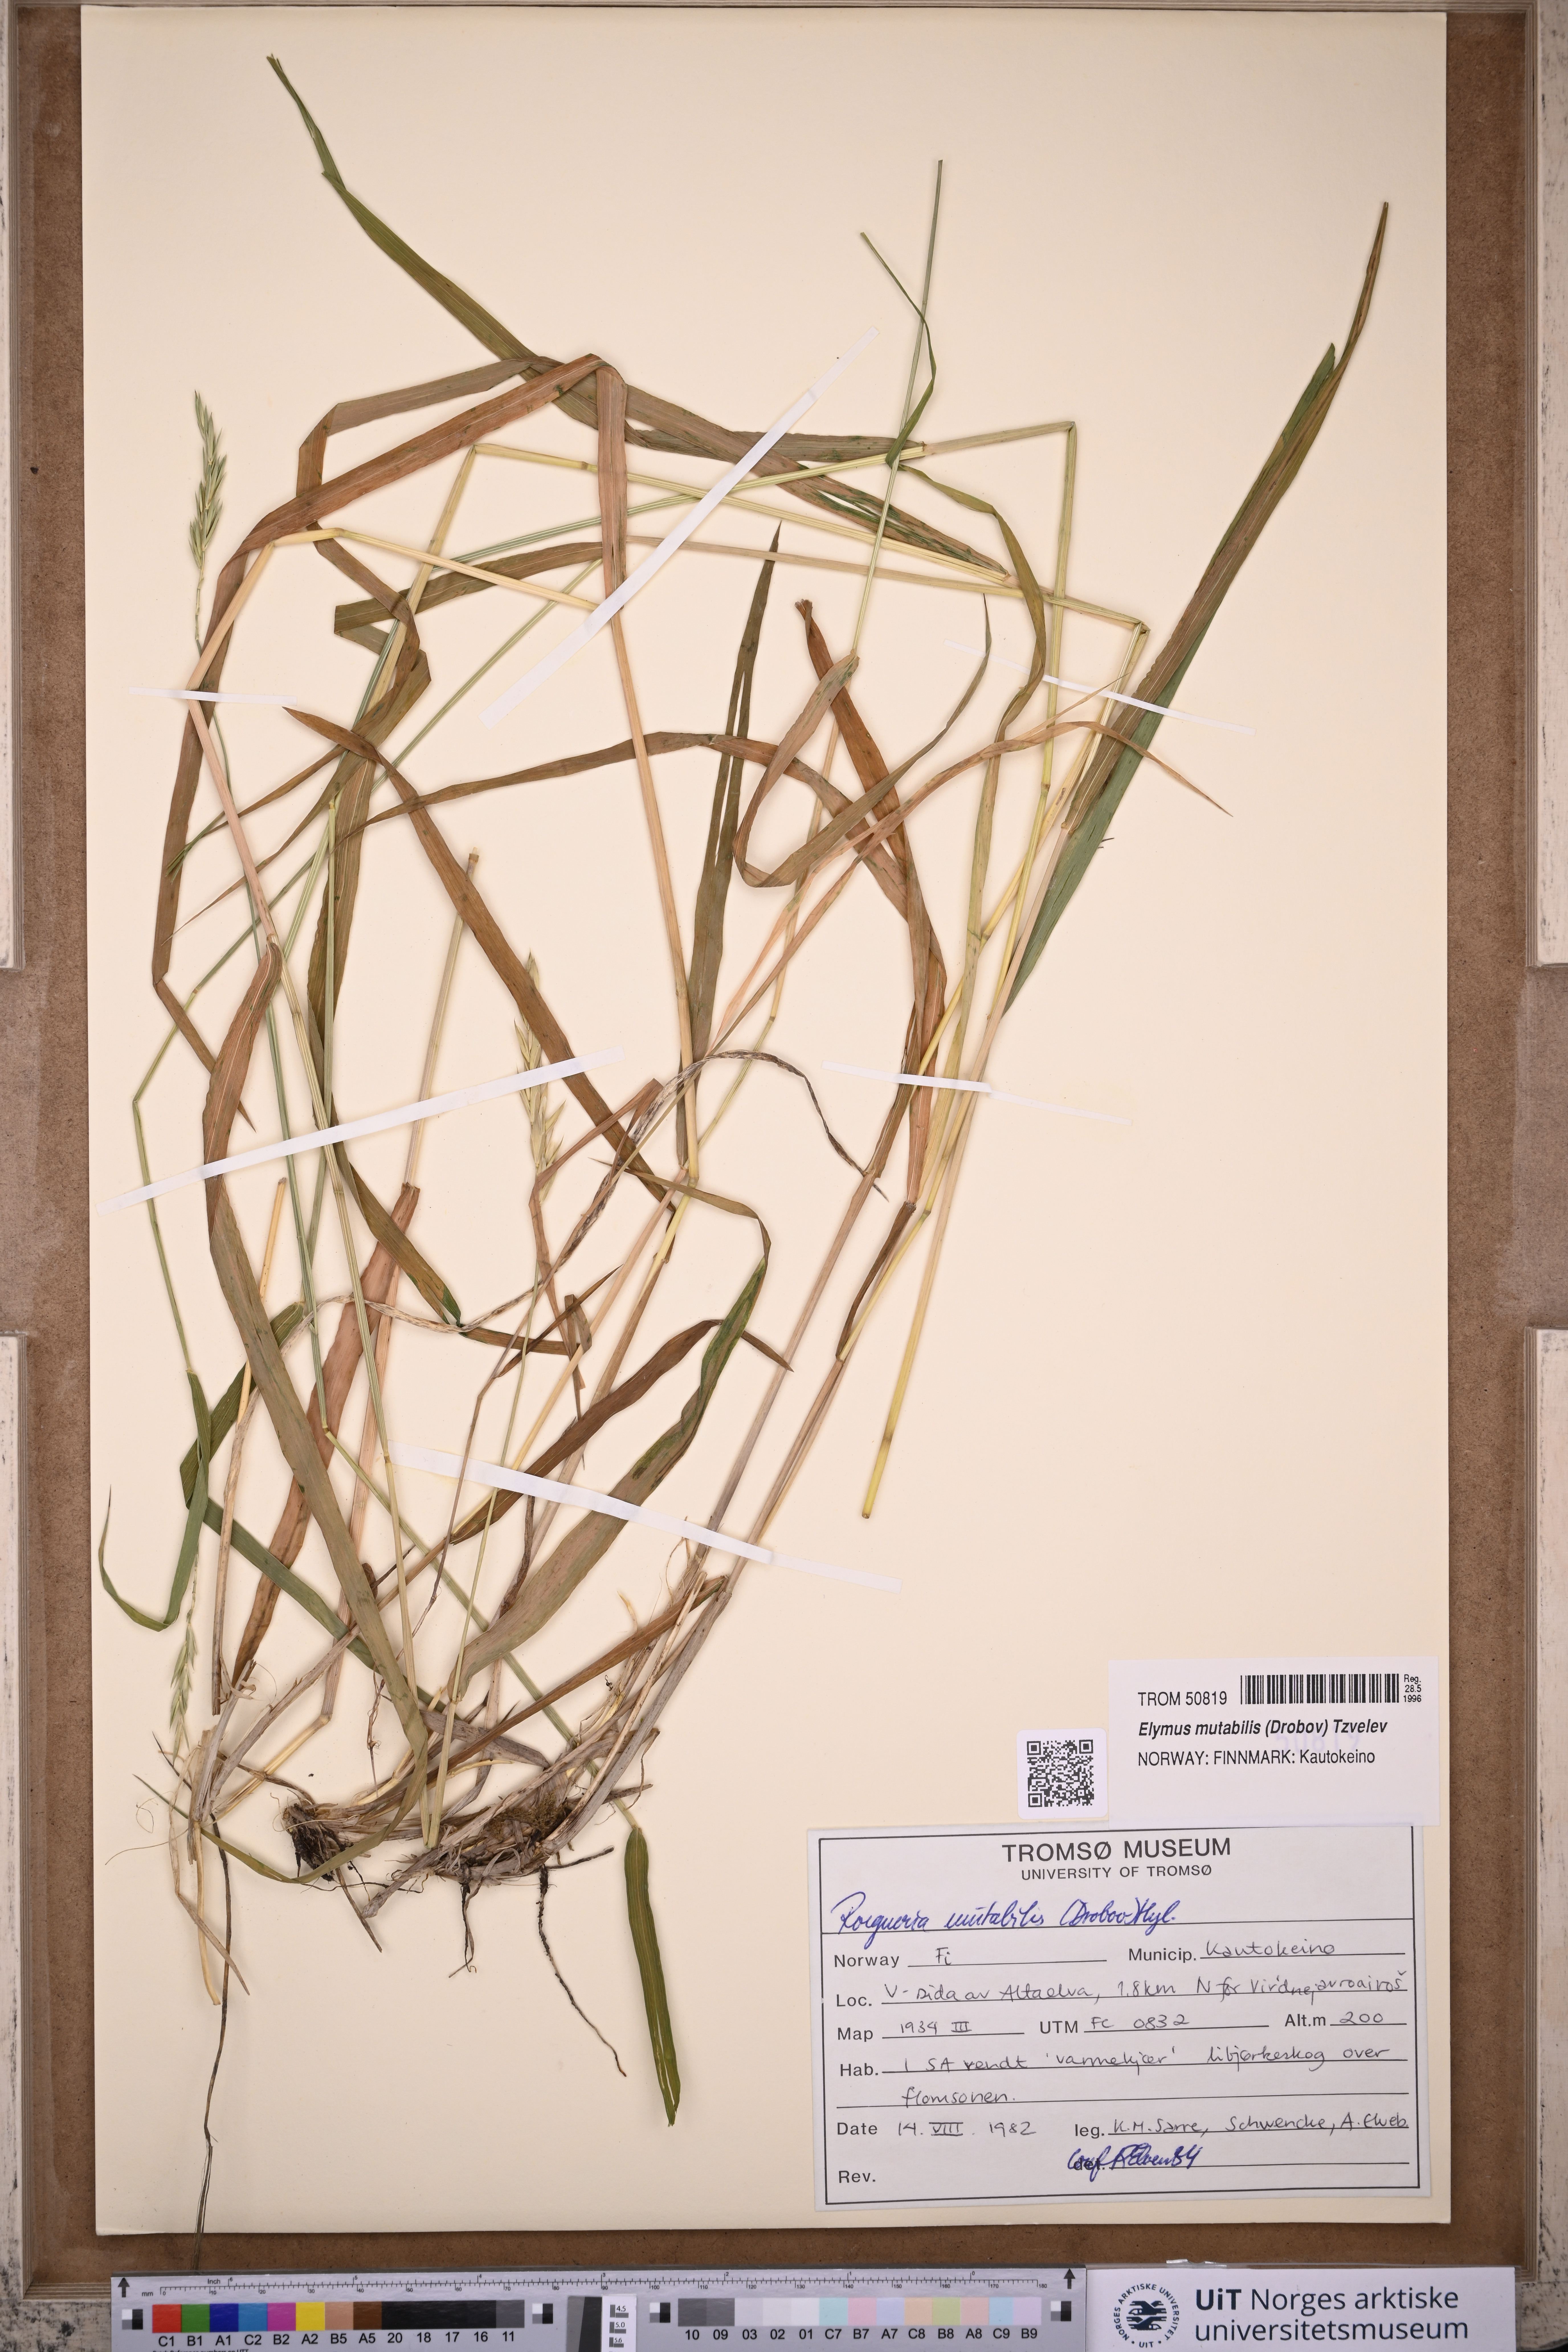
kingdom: Plantae
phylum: Tracheophyta
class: Liliopsida
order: Poales
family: Poaceae
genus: Elymus
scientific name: Elymus mutabilis
